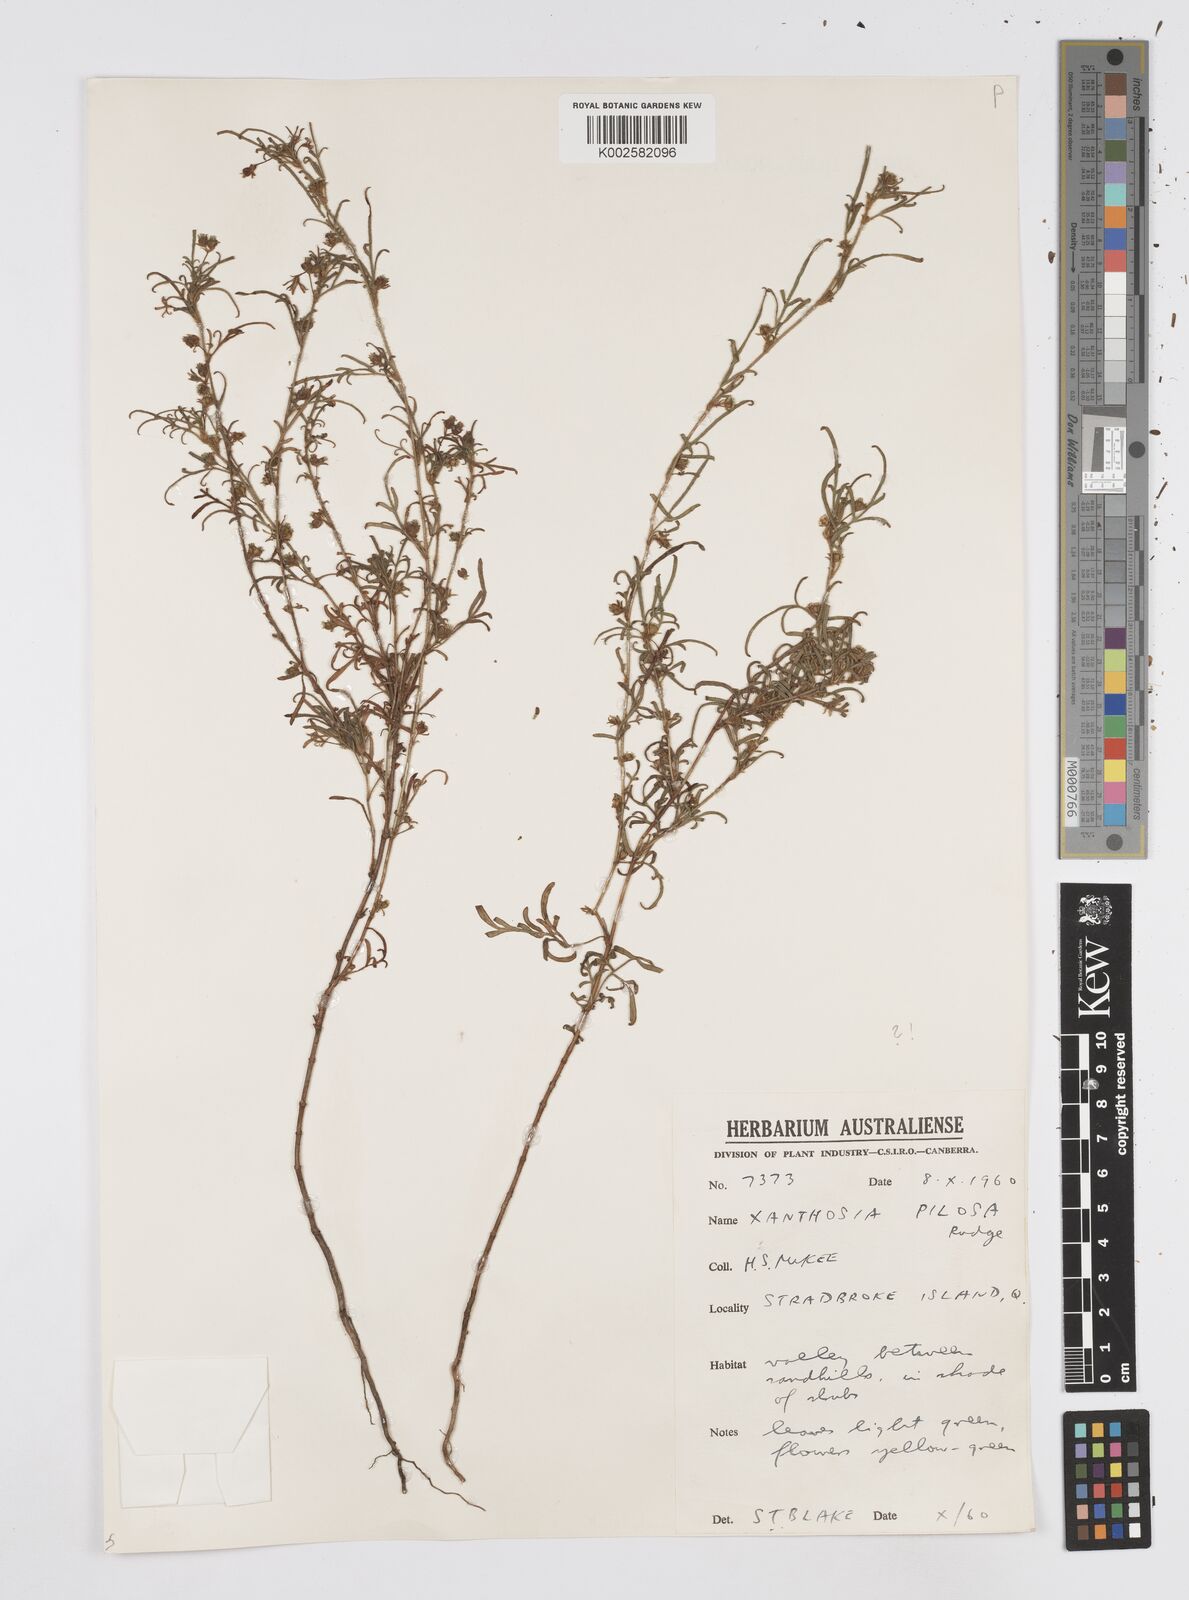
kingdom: Plantae
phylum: Tracheophyta
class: Magnoliopsida
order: Apiales
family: Apiaceae
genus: Xanthosia
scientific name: Xanthosia pilosa
